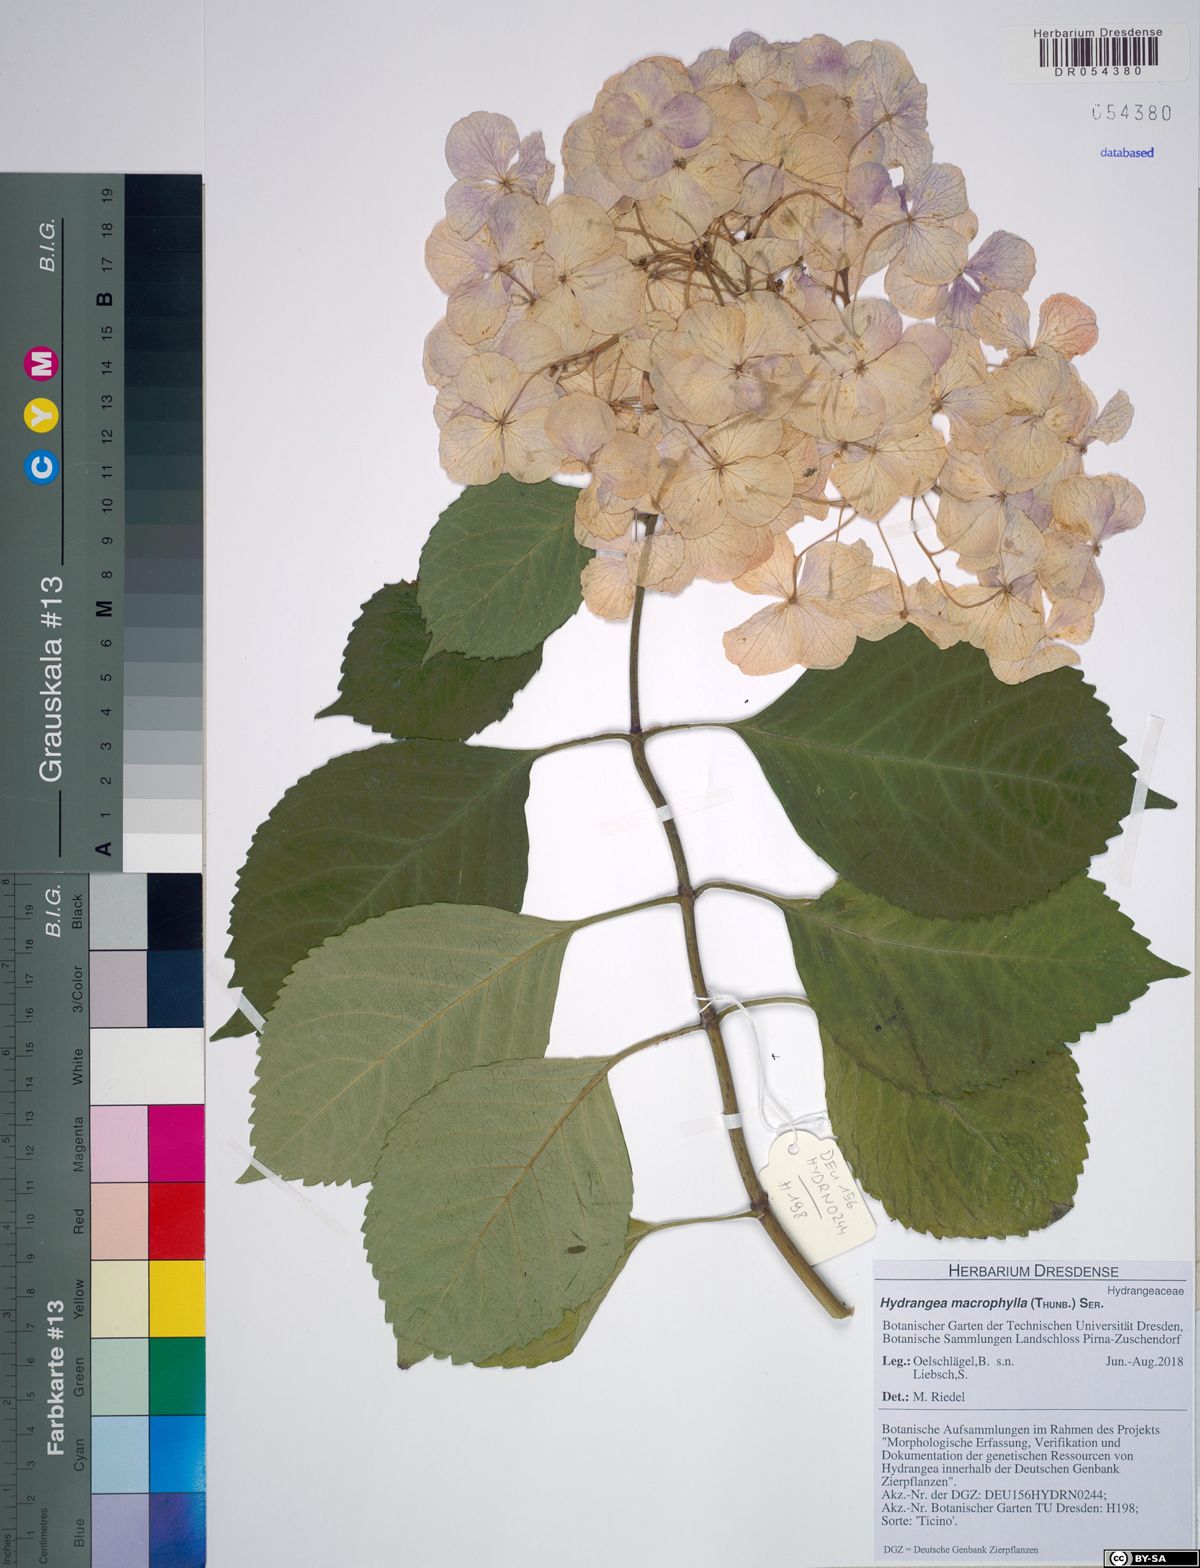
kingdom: Plantae
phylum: Tracheophyta
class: Magnoliopsida
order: Cornales
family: Hydrangeaceae
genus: Hydrangea
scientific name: Hydrangea macrophylla
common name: Hydrangea
